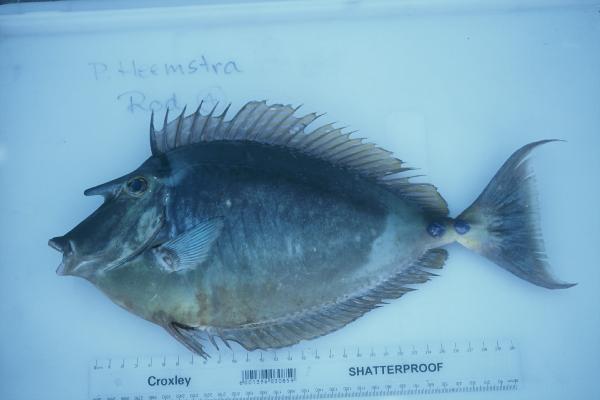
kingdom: Animalia
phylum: Chordata
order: Perciformes
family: Acanthuridae
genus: Naso
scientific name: Naso unicornis
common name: Bluespine unicornfish
